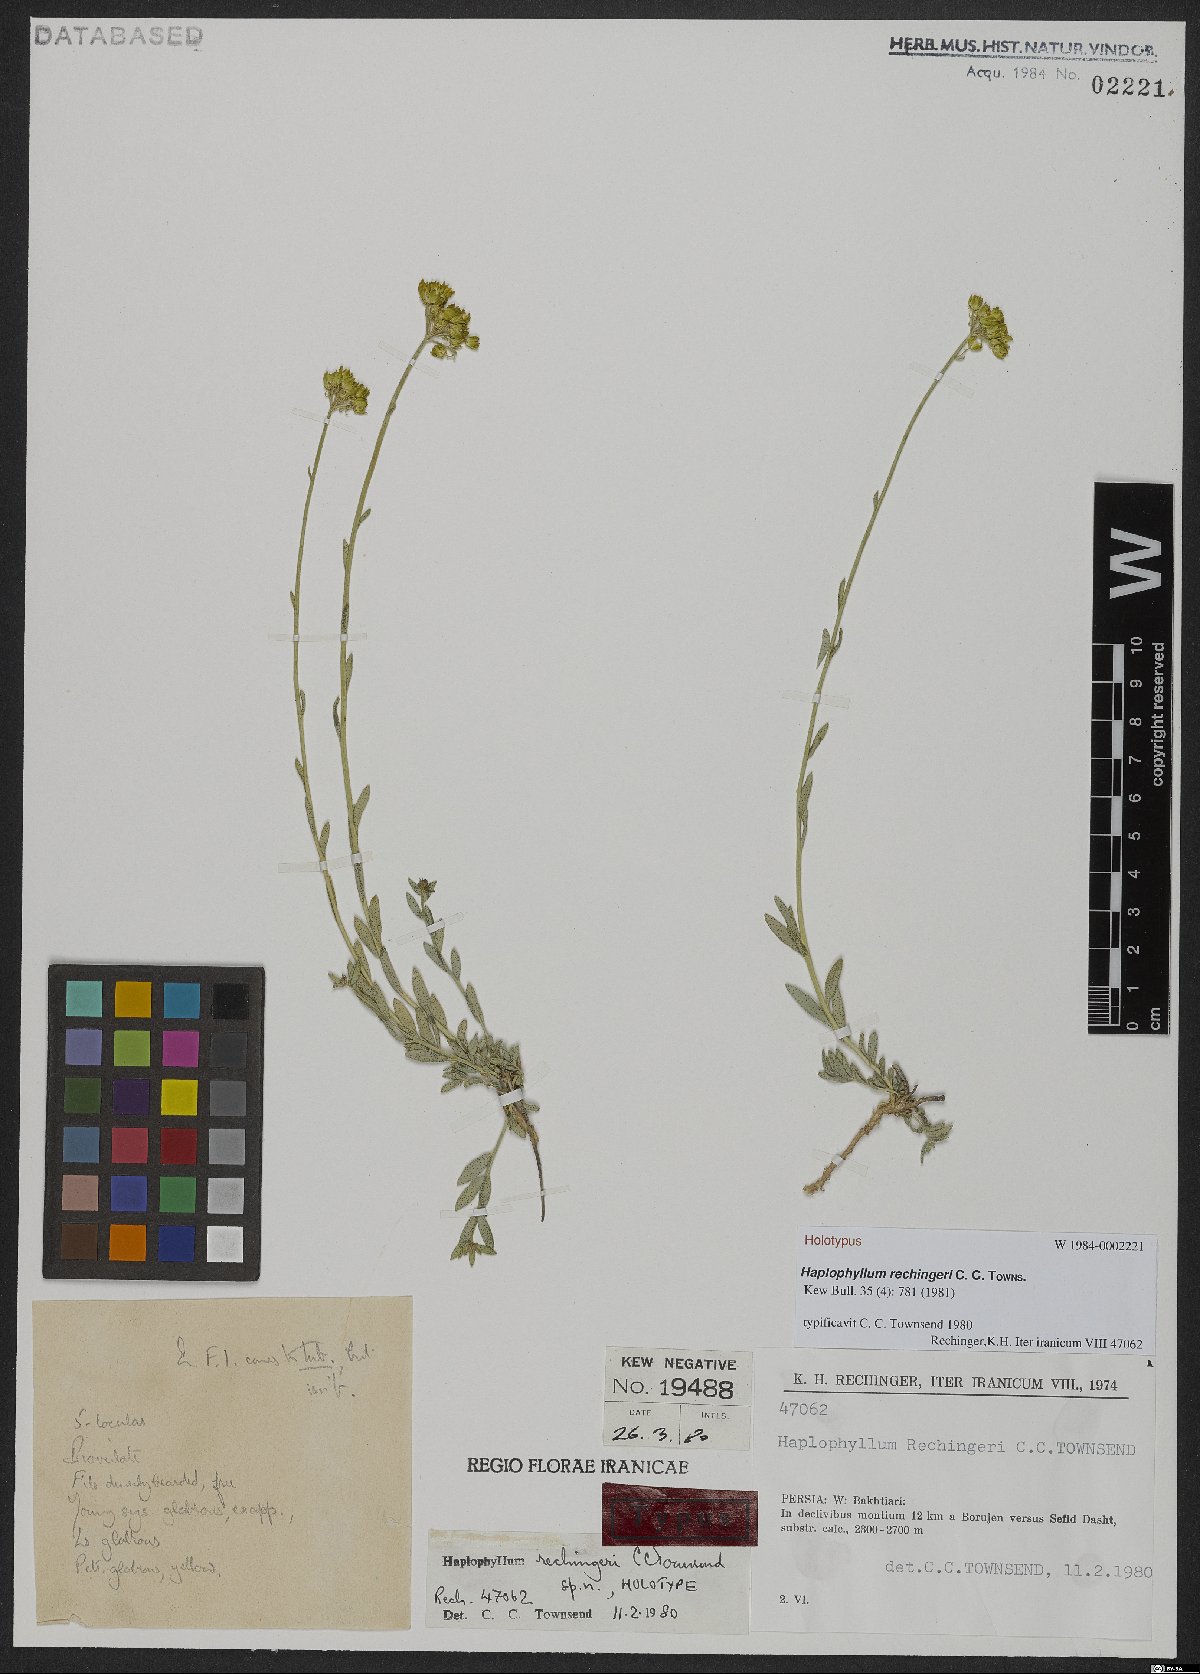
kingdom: Plantae
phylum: Tracheophyta
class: Magnoliopsida
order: Sapindales
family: Rutaceae
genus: Haplophyllum
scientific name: Haplophyllum rechingeri
